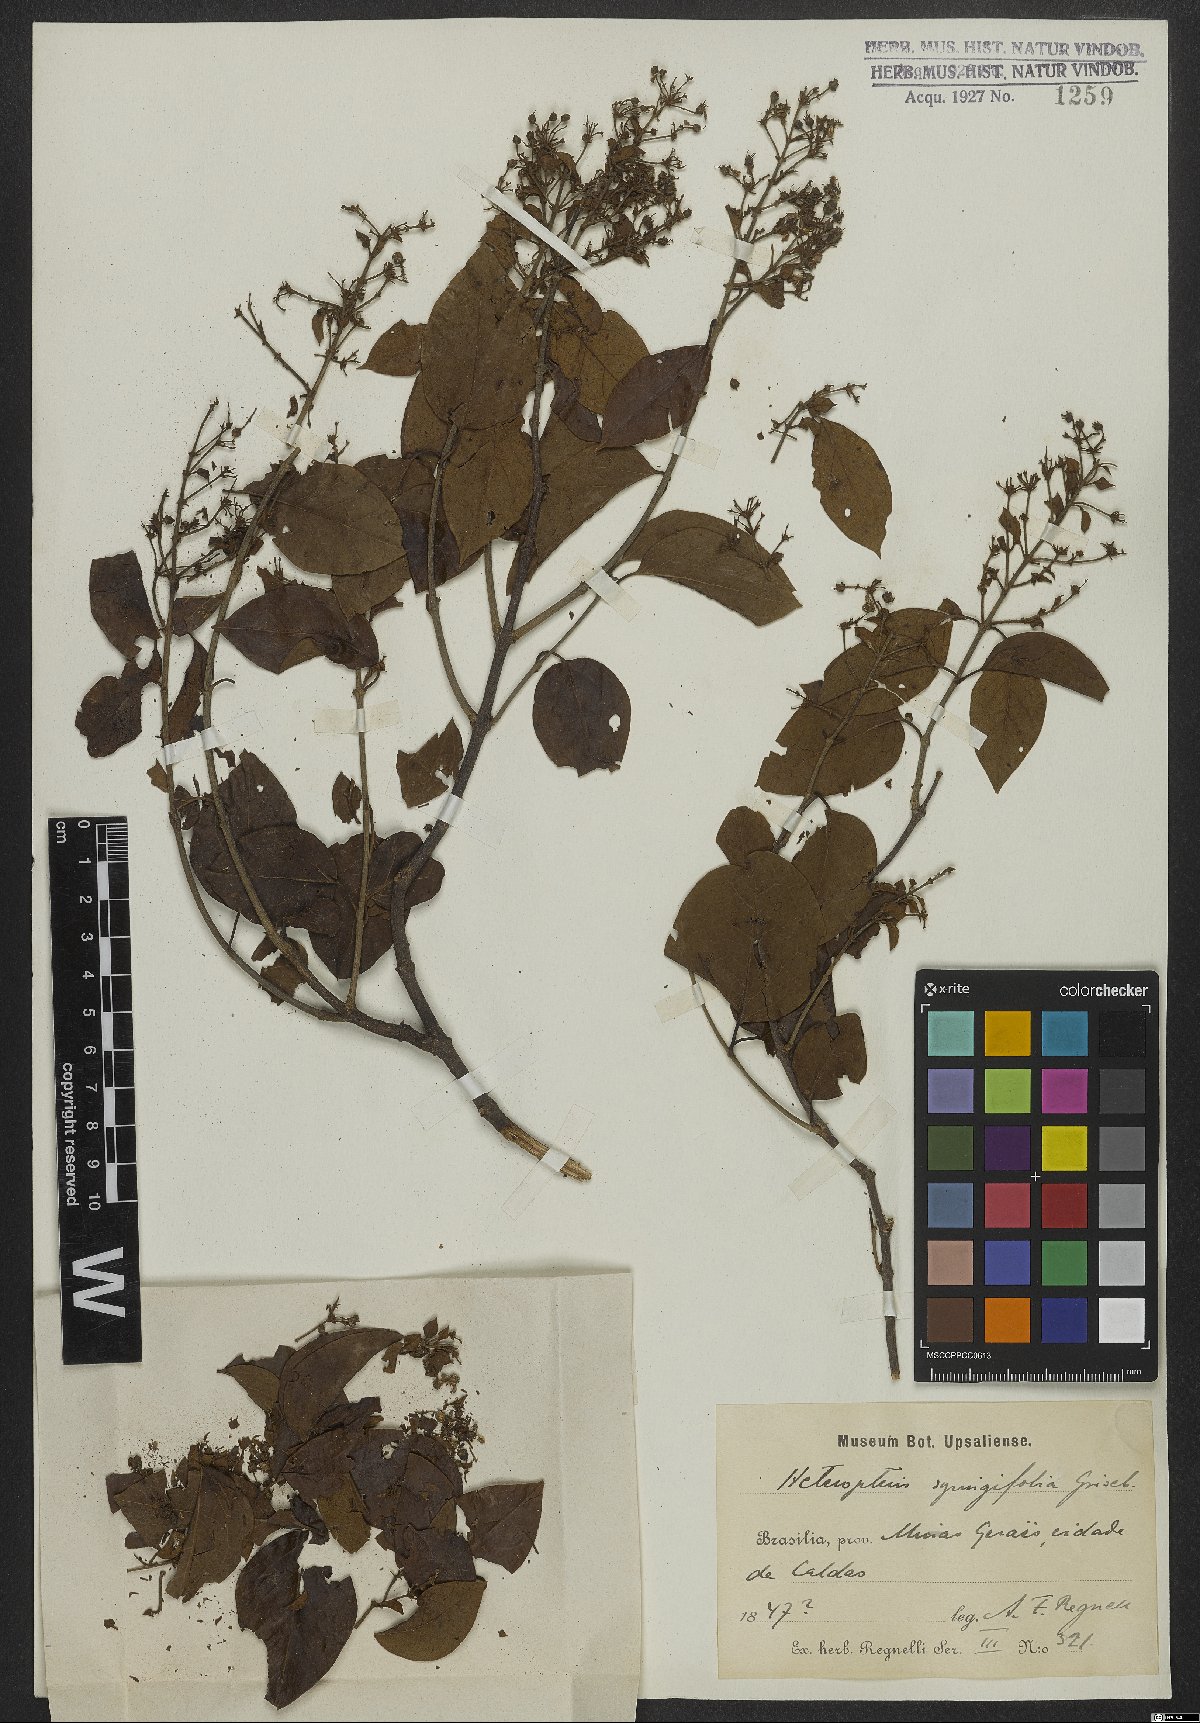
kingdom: Plantae
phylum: Tracheophyta
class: Magnoliopsida
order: Malpighiales
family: Malpighiaceae
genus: Heteropterys
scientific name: Heteropterys syringifolia
